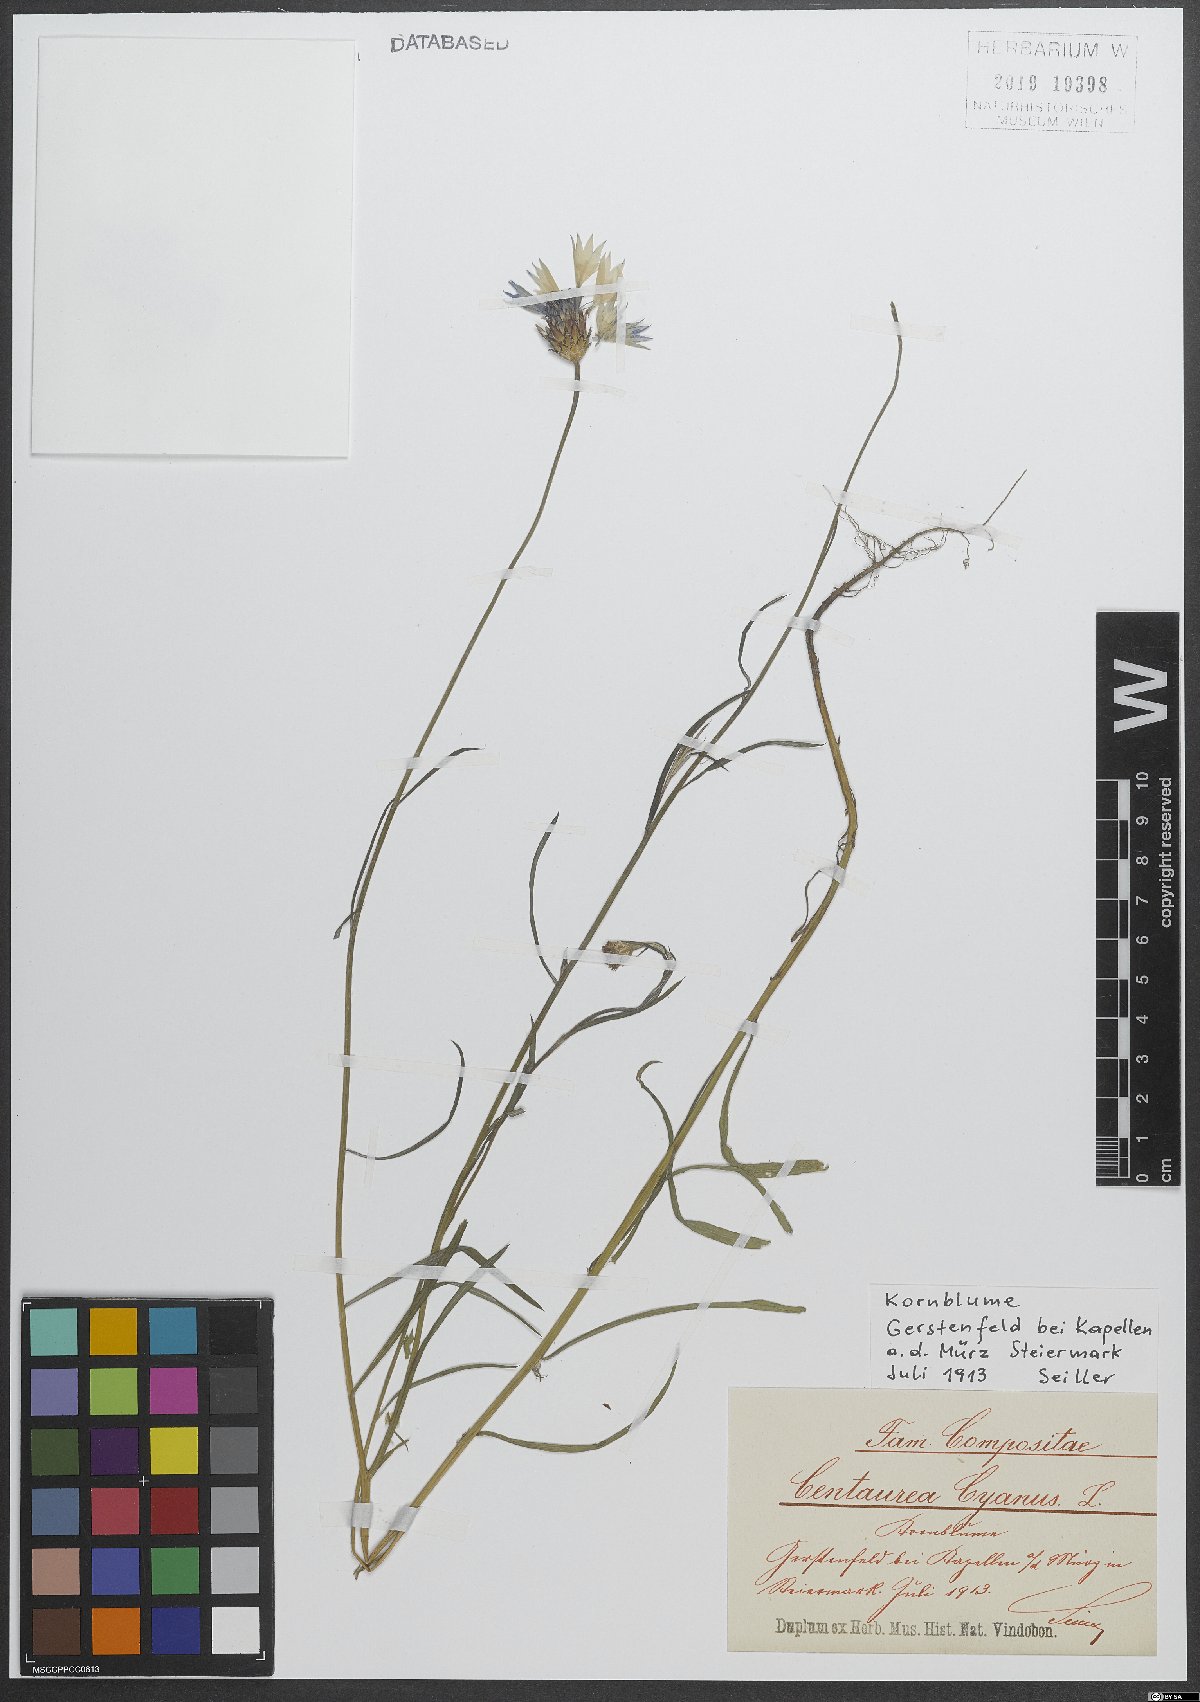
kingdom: Plantae
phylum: Tracheophyta
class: Magnoliopsida
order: Asterales
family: Asteraceae
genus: Centaurea
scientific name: Centaurea cyanus
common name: Cornflower
